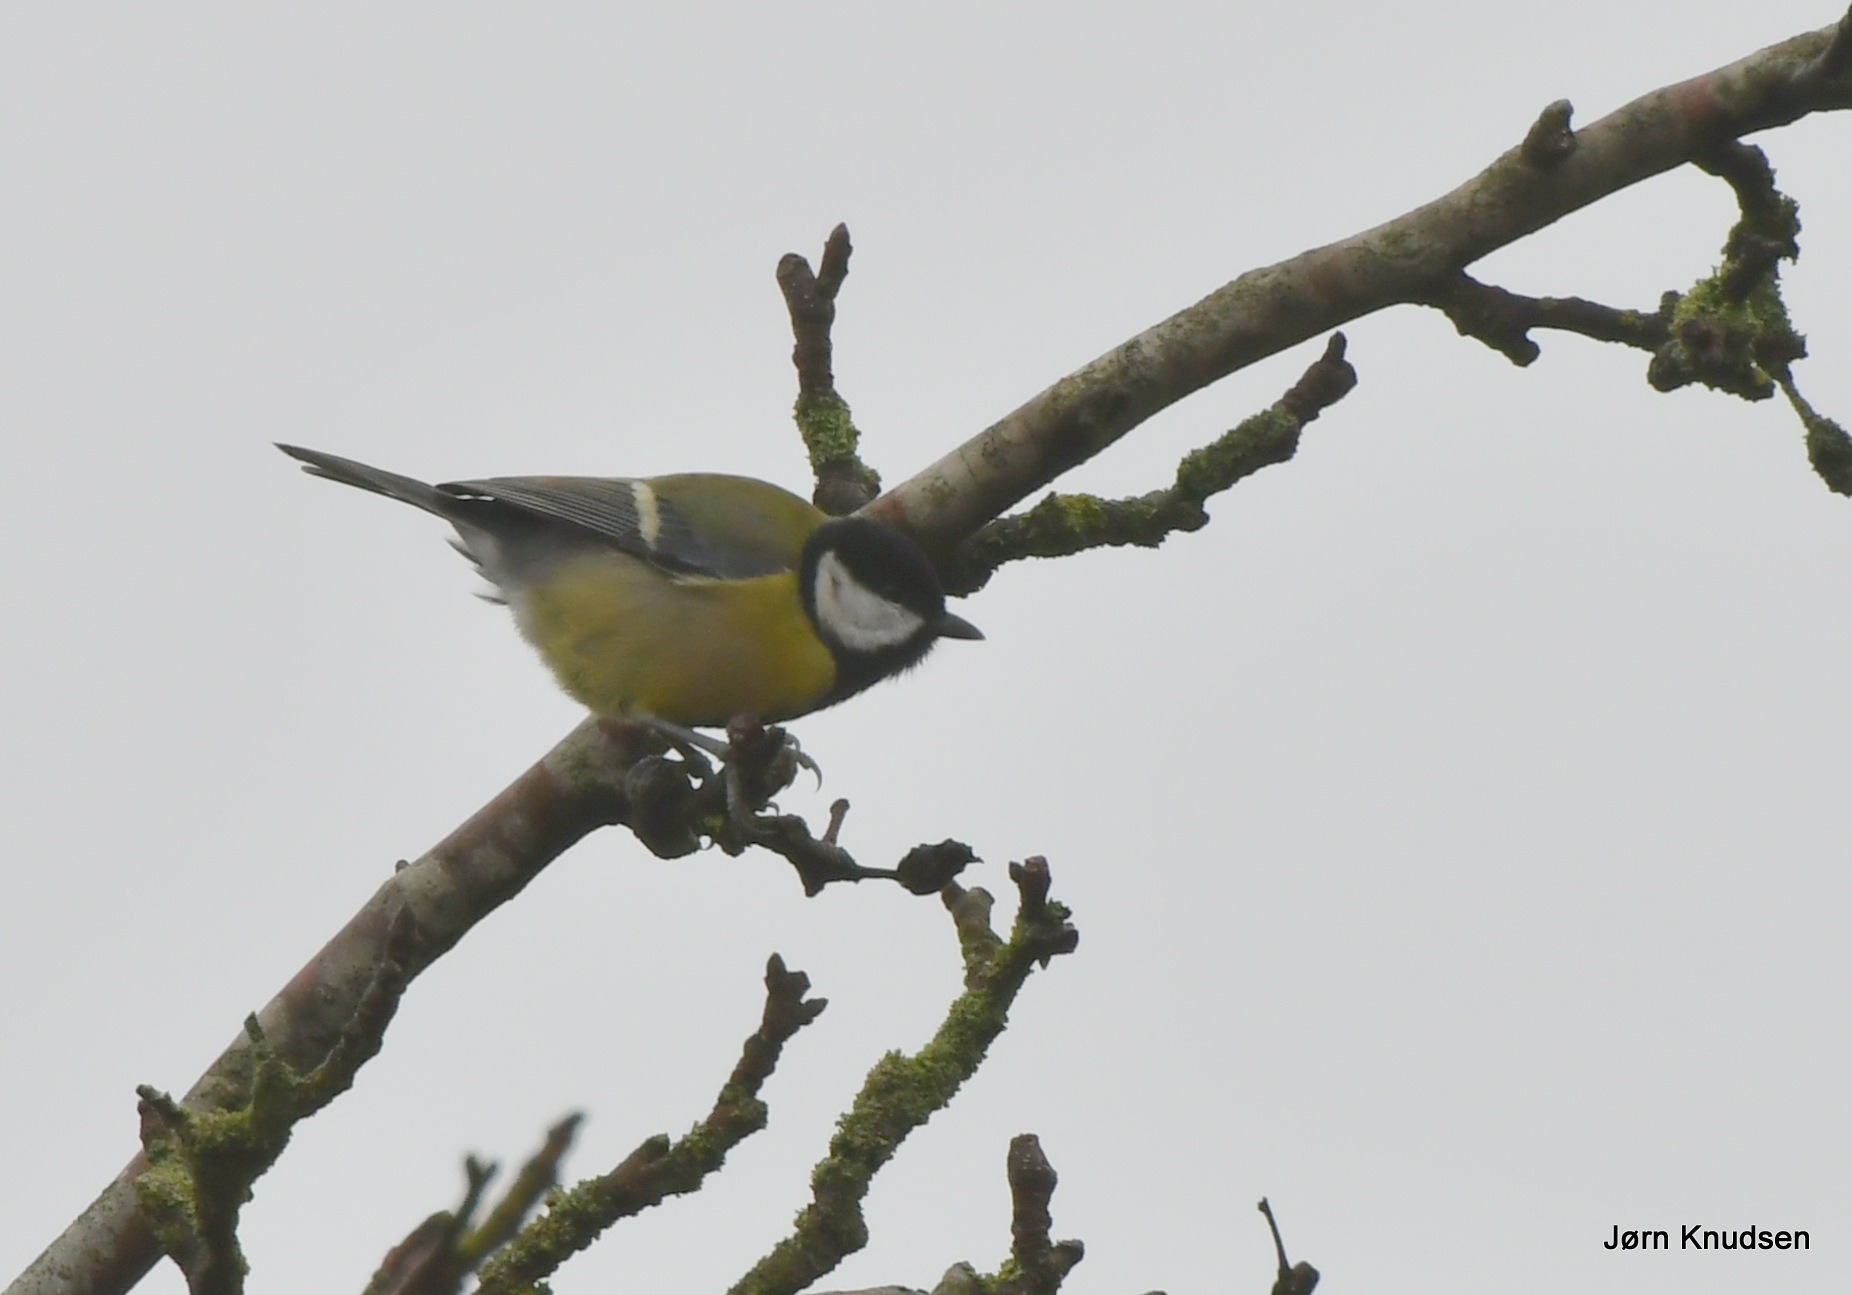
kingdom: Animalia
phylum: Chordata
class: Aves
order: Passeriformes
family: Paridae
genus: Parus
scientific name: Parus major
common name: Musvit
